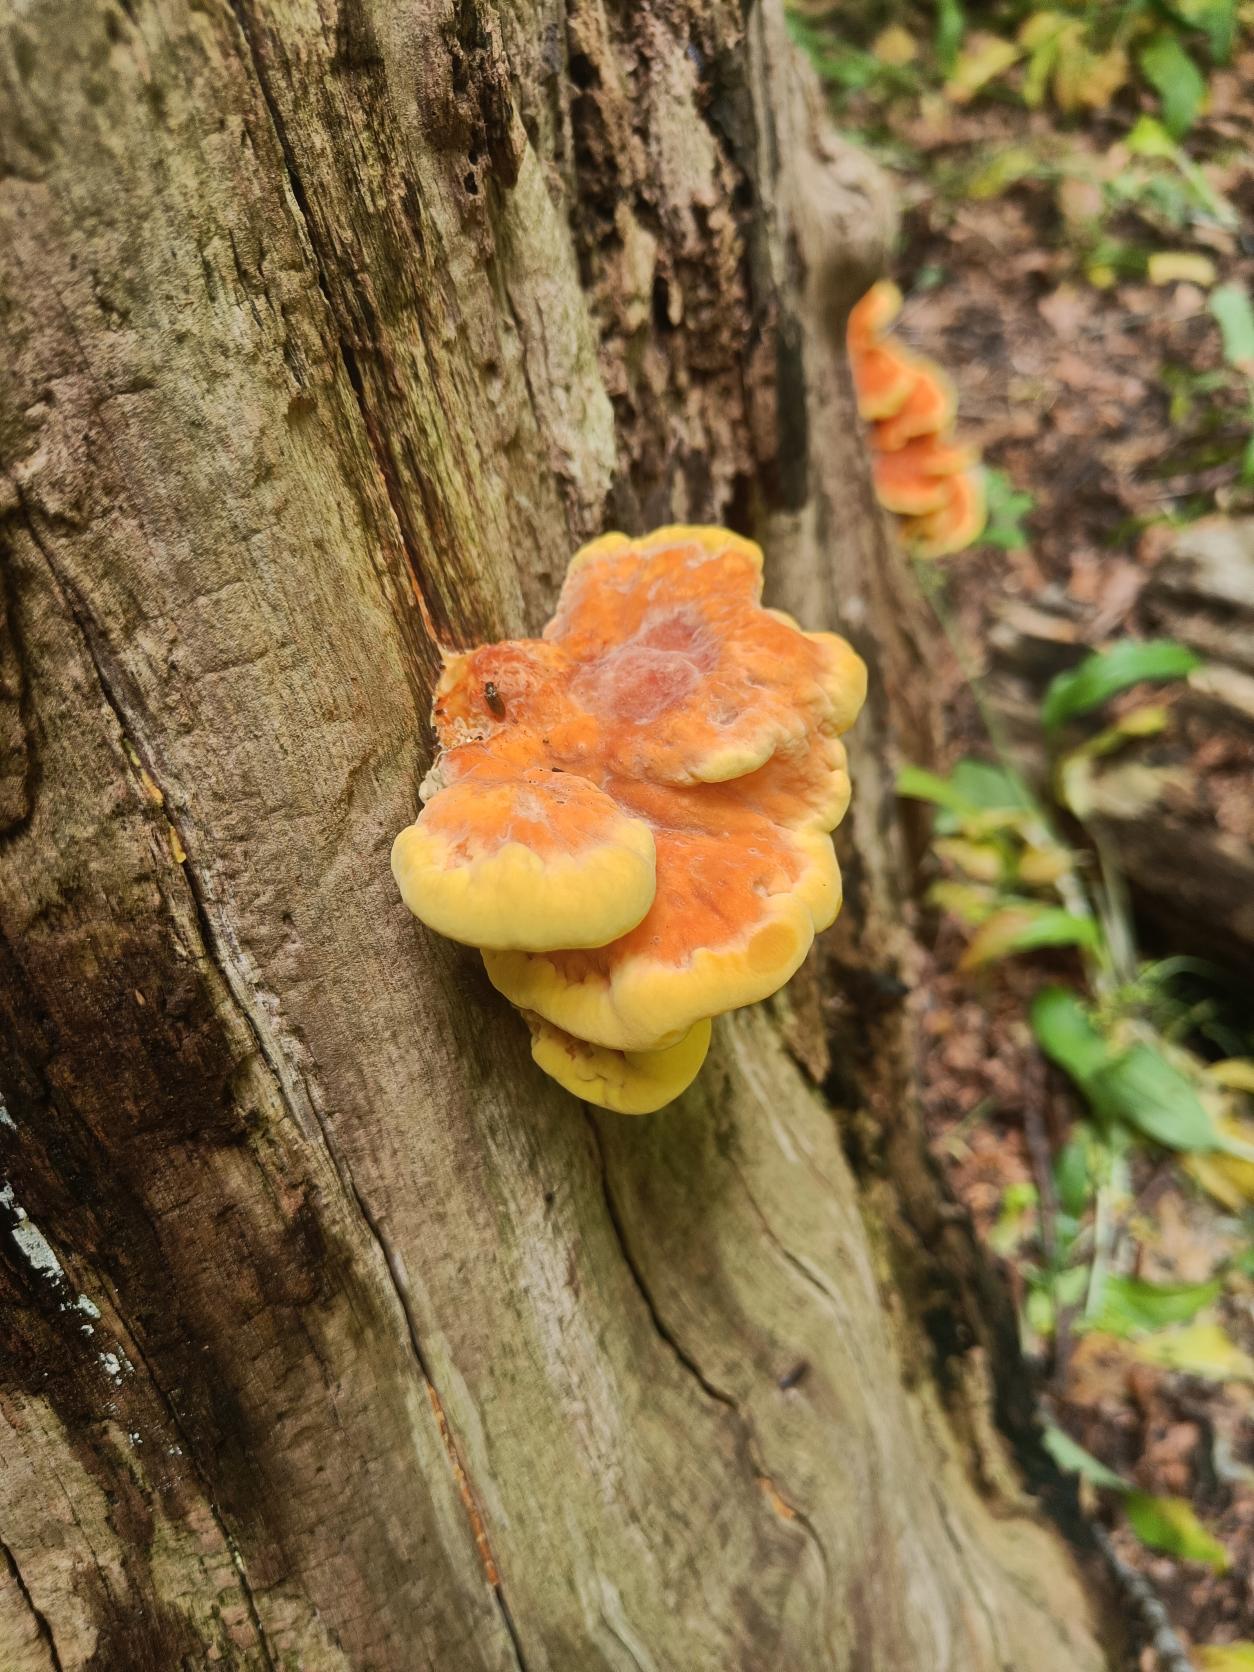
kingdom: Fungi
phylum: Basidiomycota
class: Agaricomycetes
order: Polyporales
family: Laetiporaceae
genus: Laetiporus
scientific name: Laetiporus sulphureus
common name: Svovlporesvamp
